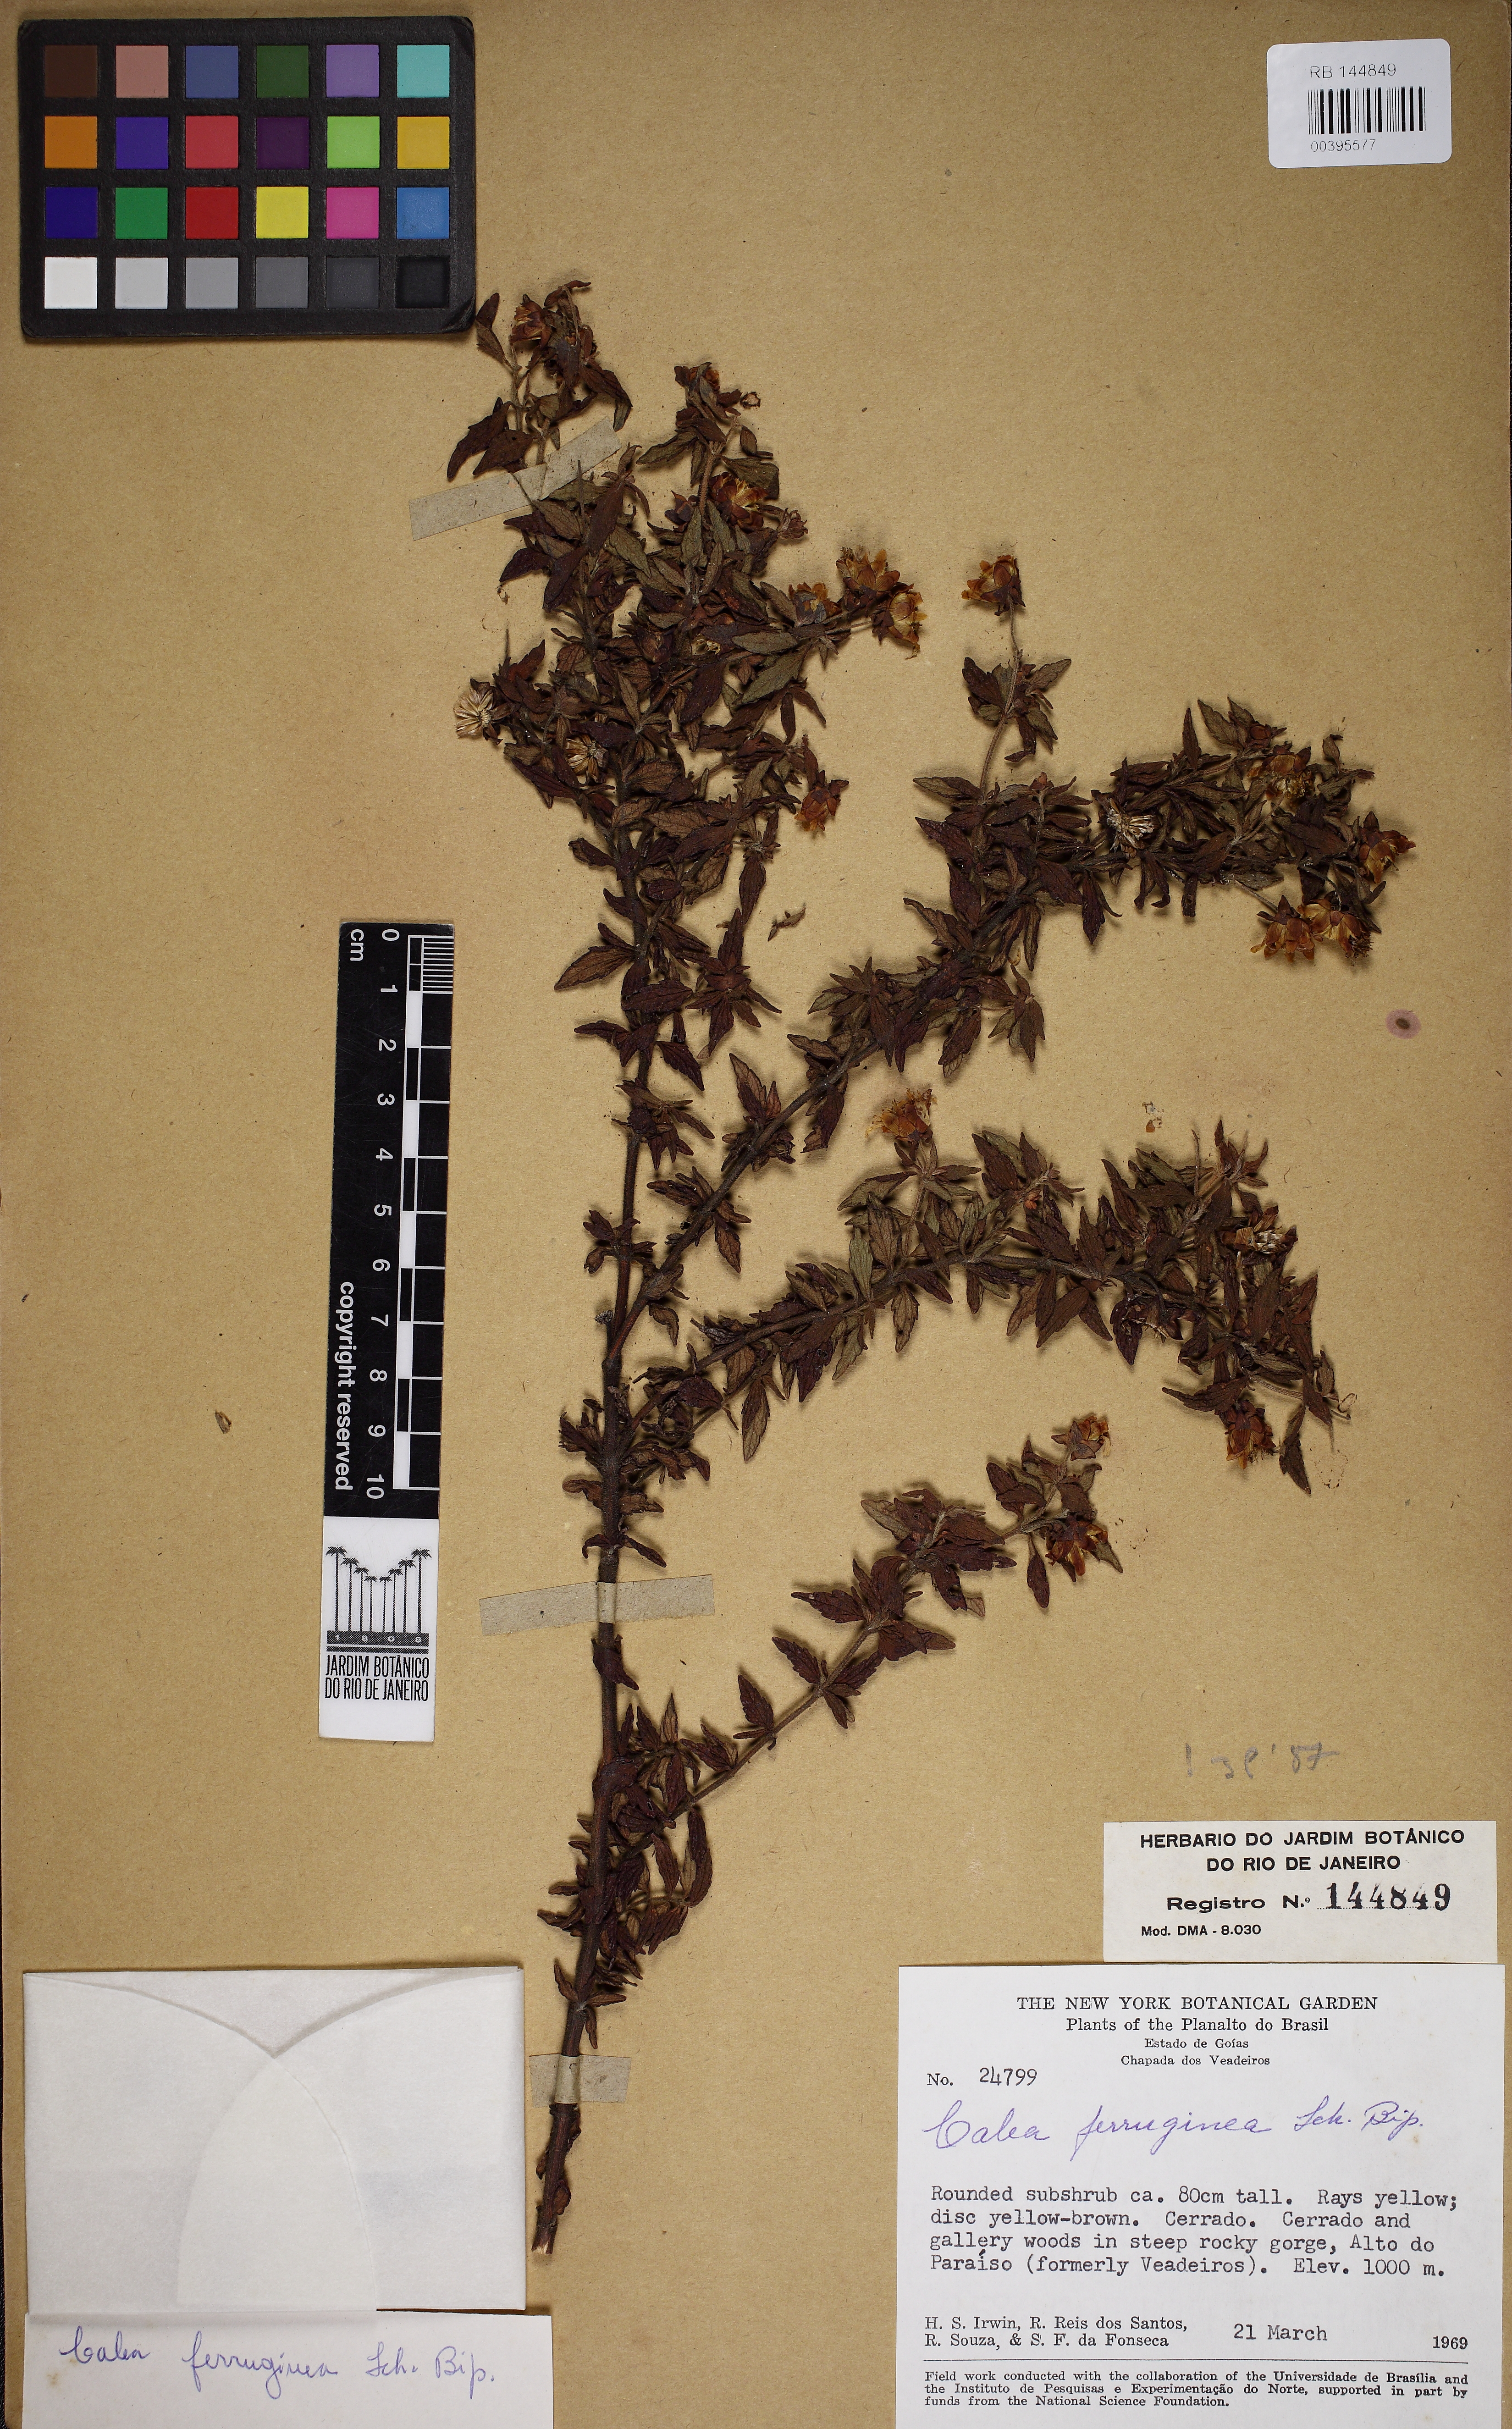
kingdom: Plantae
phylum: Tracheophyta
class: Magnoliopsida
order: Asterales
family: Asteraceae
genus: Calea
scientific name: Calea ferruginea
